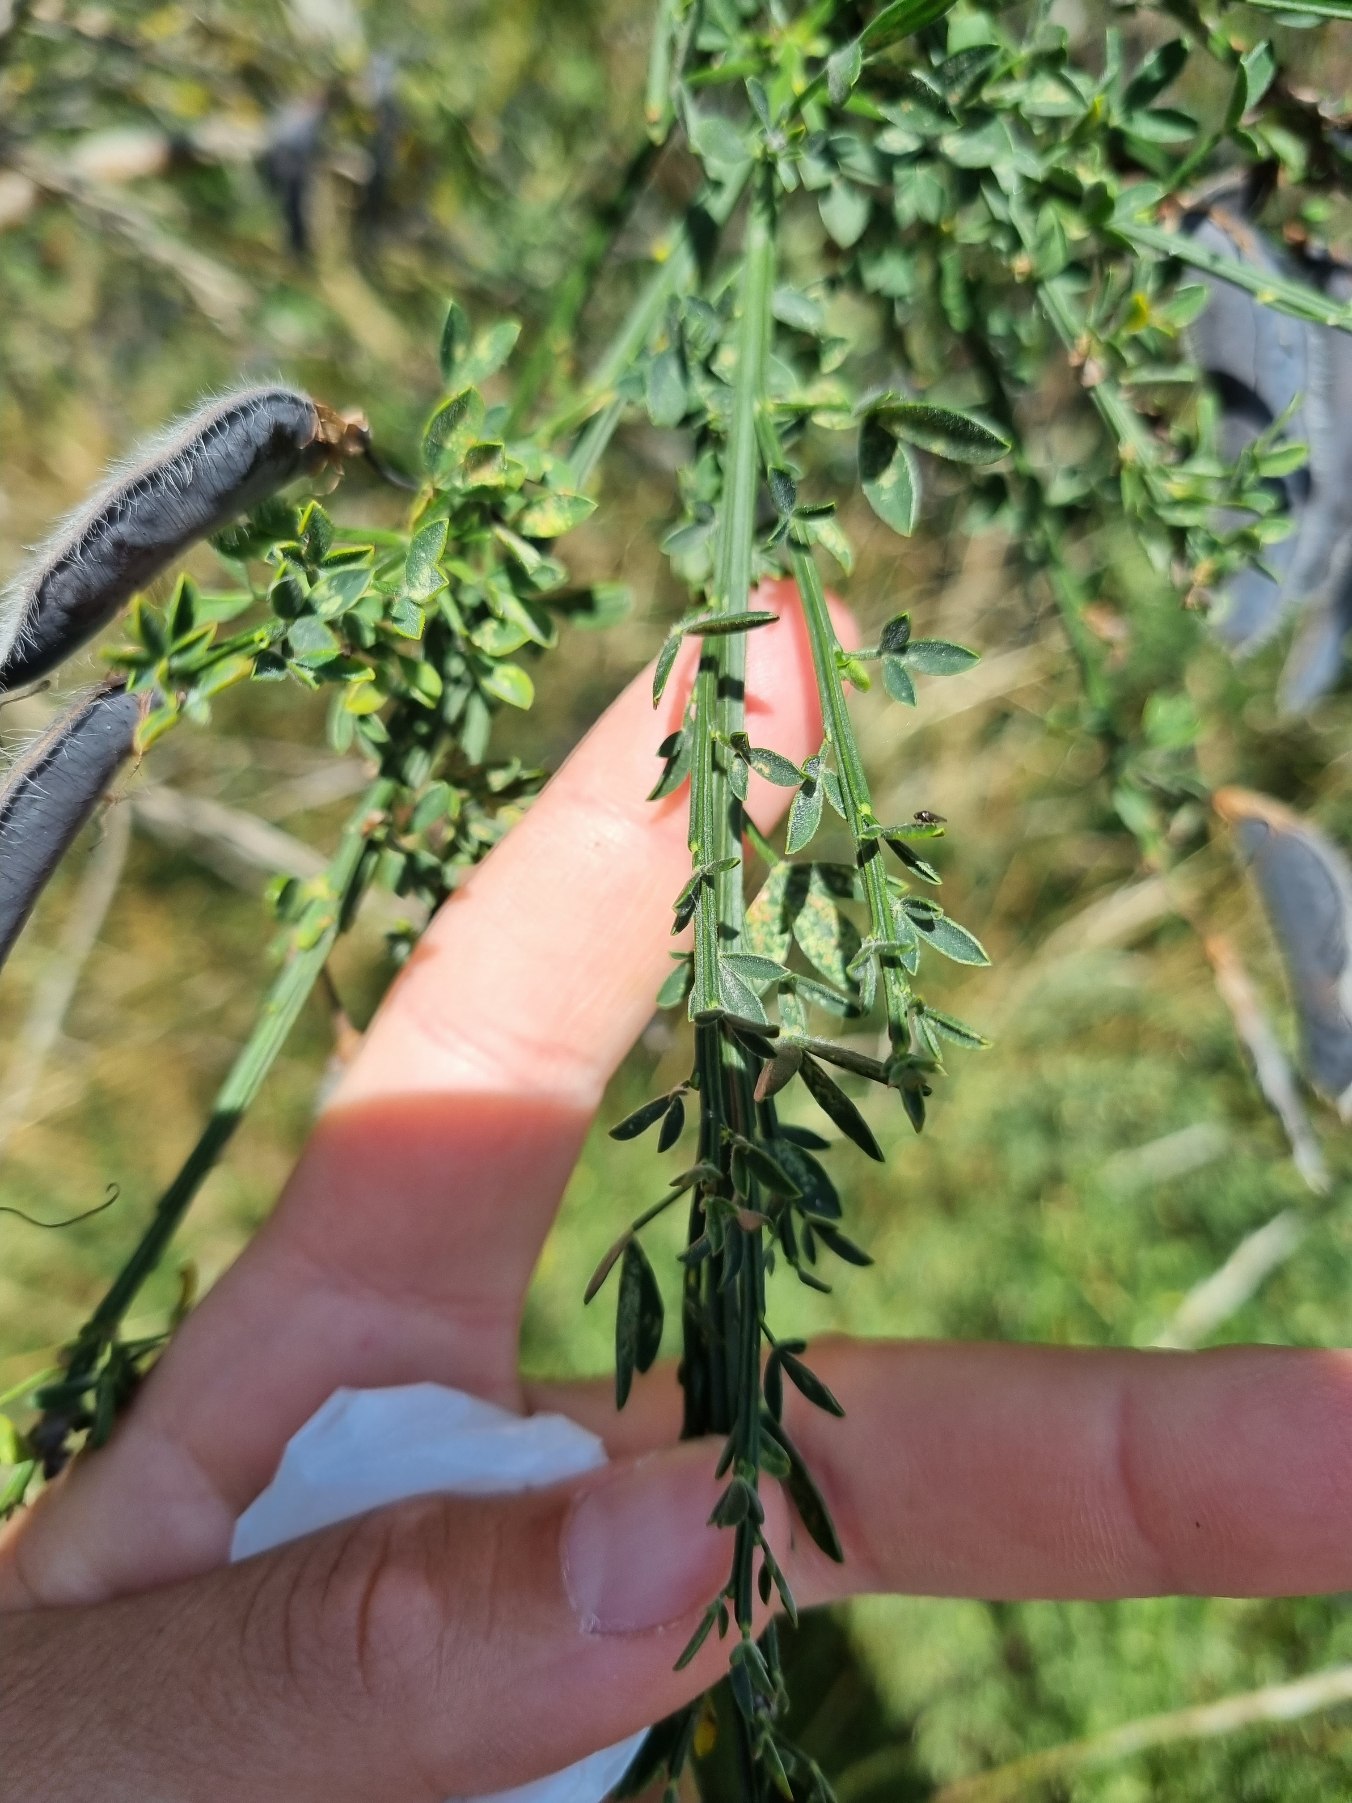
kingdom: Plantae
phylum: Tracheophyta
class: Magnoliopsida
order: Fabales
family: Fabaceae
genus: Cytisus
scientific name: Cytisus scoparius
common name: Almindelig gyvel
